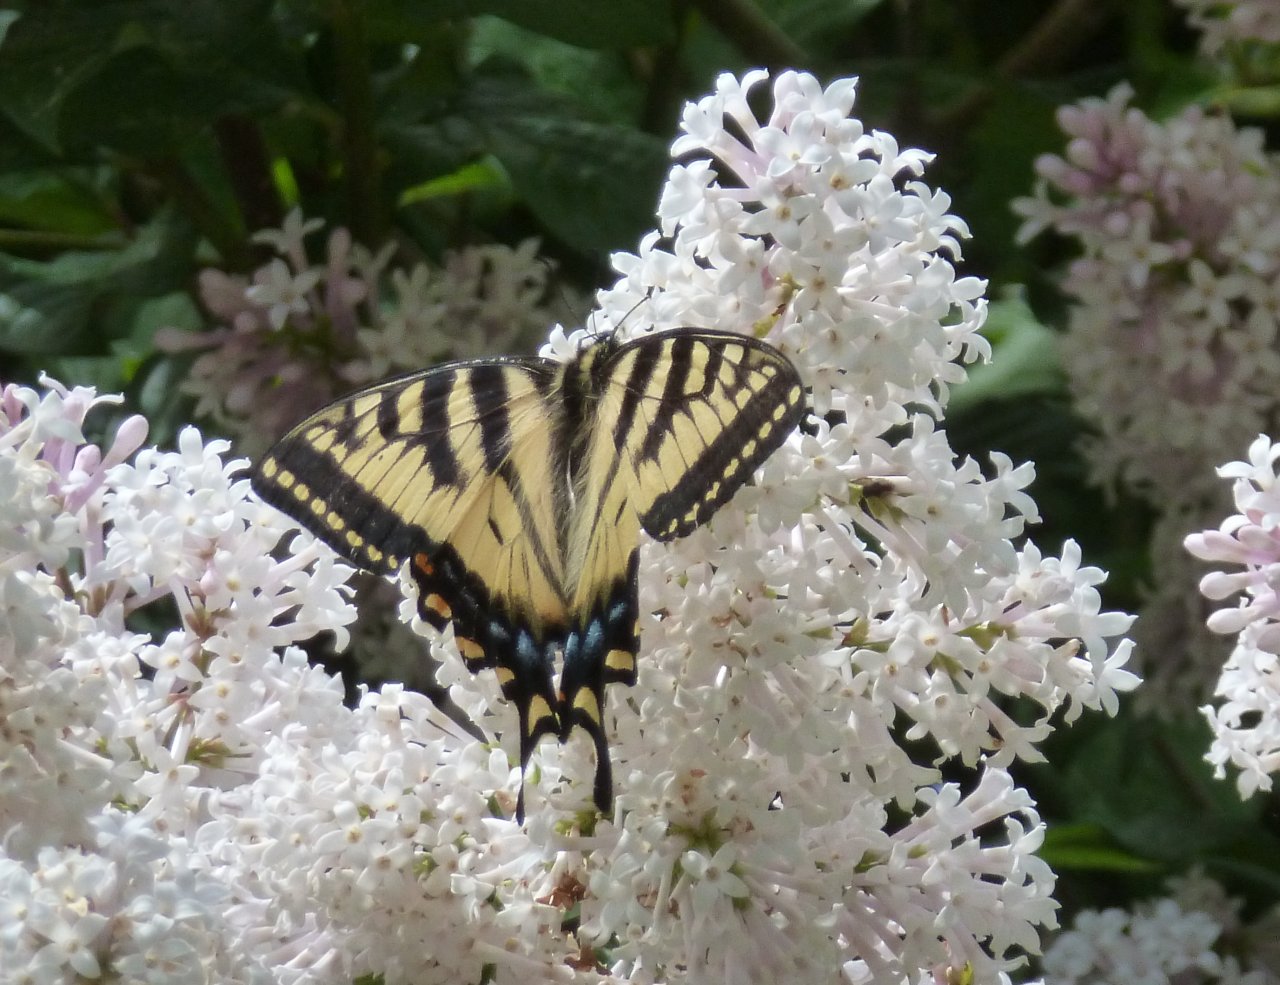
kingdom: Animalia
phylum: Arthropoda
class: Insecta
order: Lepidoptera
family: Papilionidae
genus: Pterourus
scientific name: Pterourus canadensis
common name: Canadian Tiger Swallowtail
